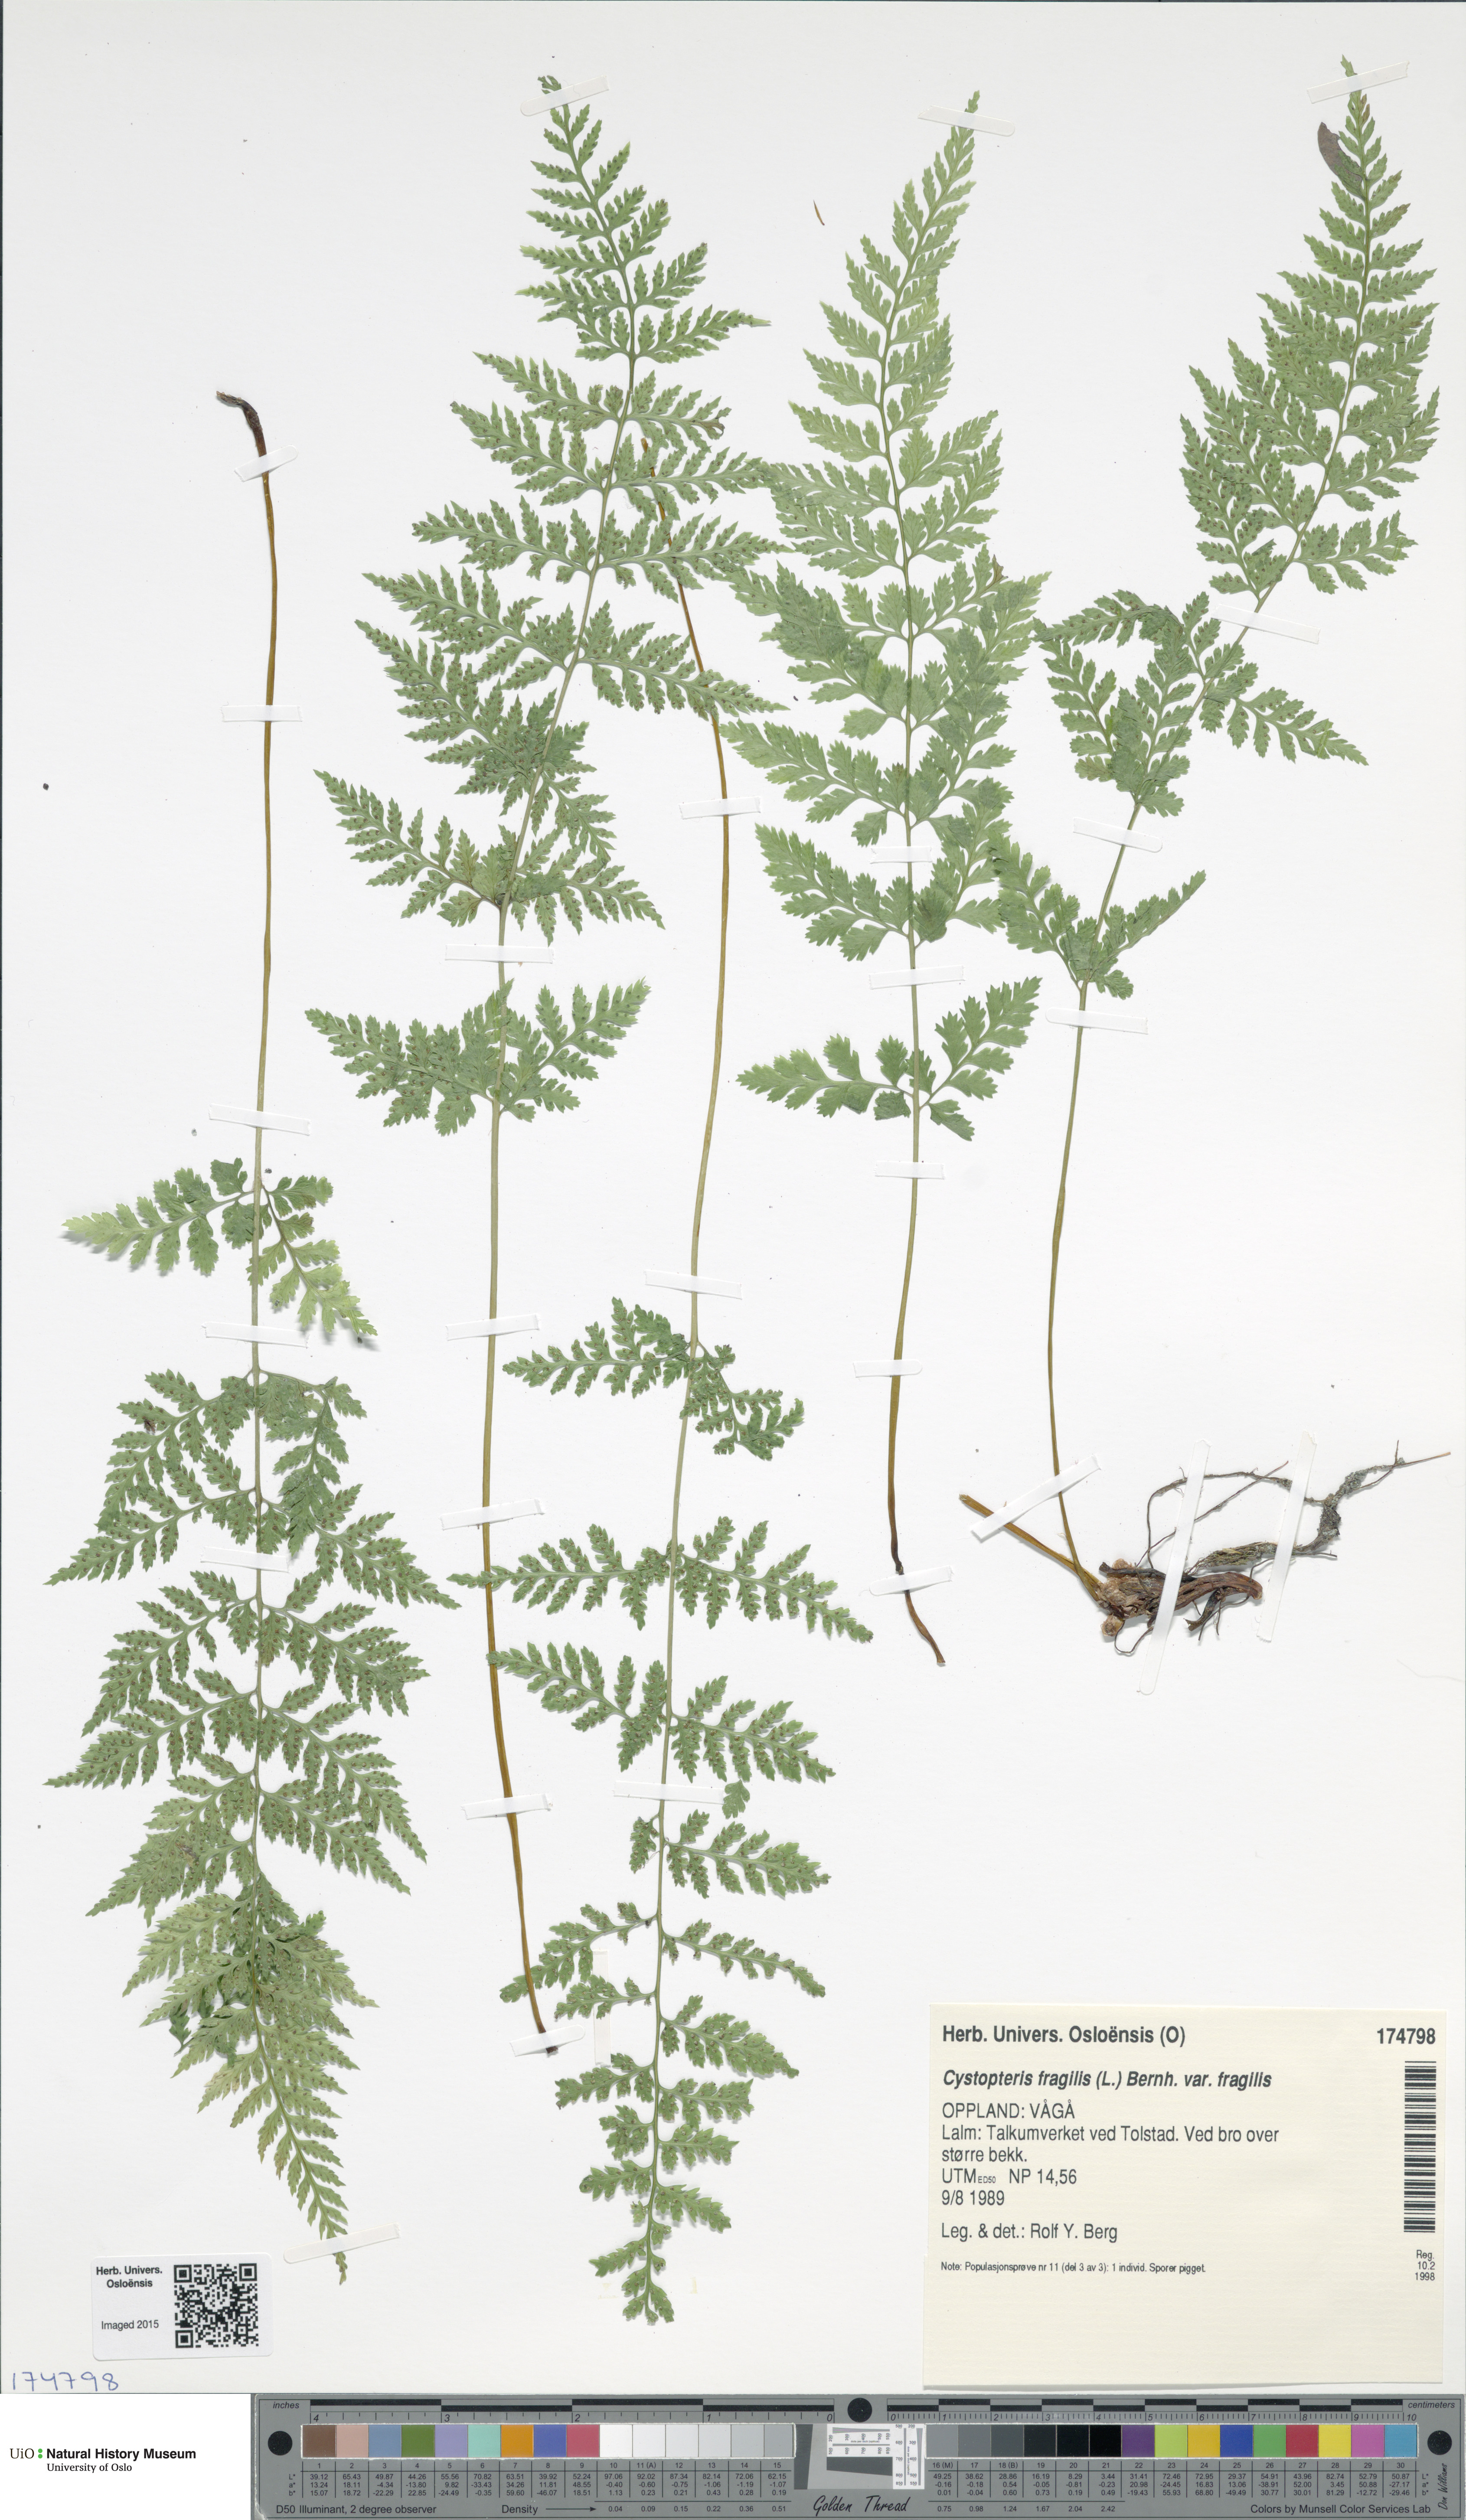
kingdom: Plantae
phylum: Tracheophyta
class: Polypodiopsida
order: Polypodiales
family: Cystopteridaceae
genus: Cystopteris
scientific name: Cystopteris fragilis
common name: Brittle bladder fern
